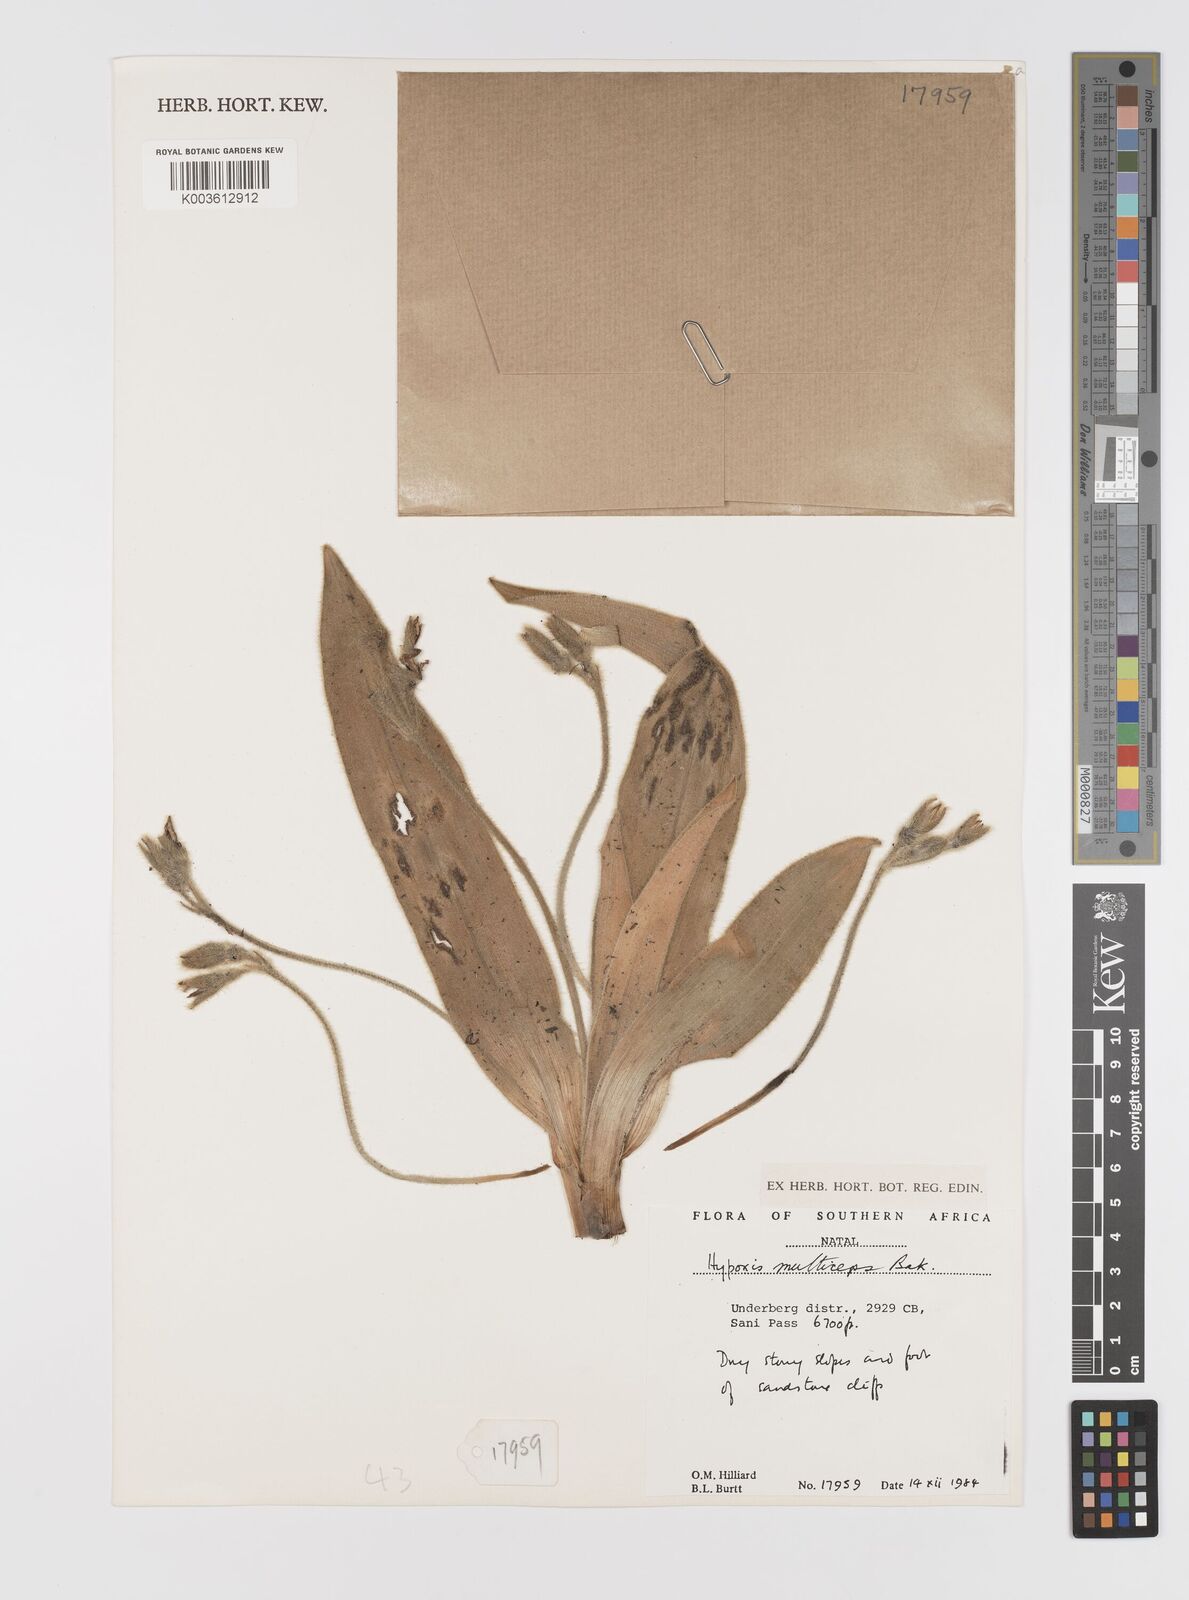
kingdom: Plantae
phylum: Tracheophyta
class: Liliopsida
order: Asparagales
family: Hypoxidaceae
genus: Hypoxis
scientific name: Hypoxis multiceps
